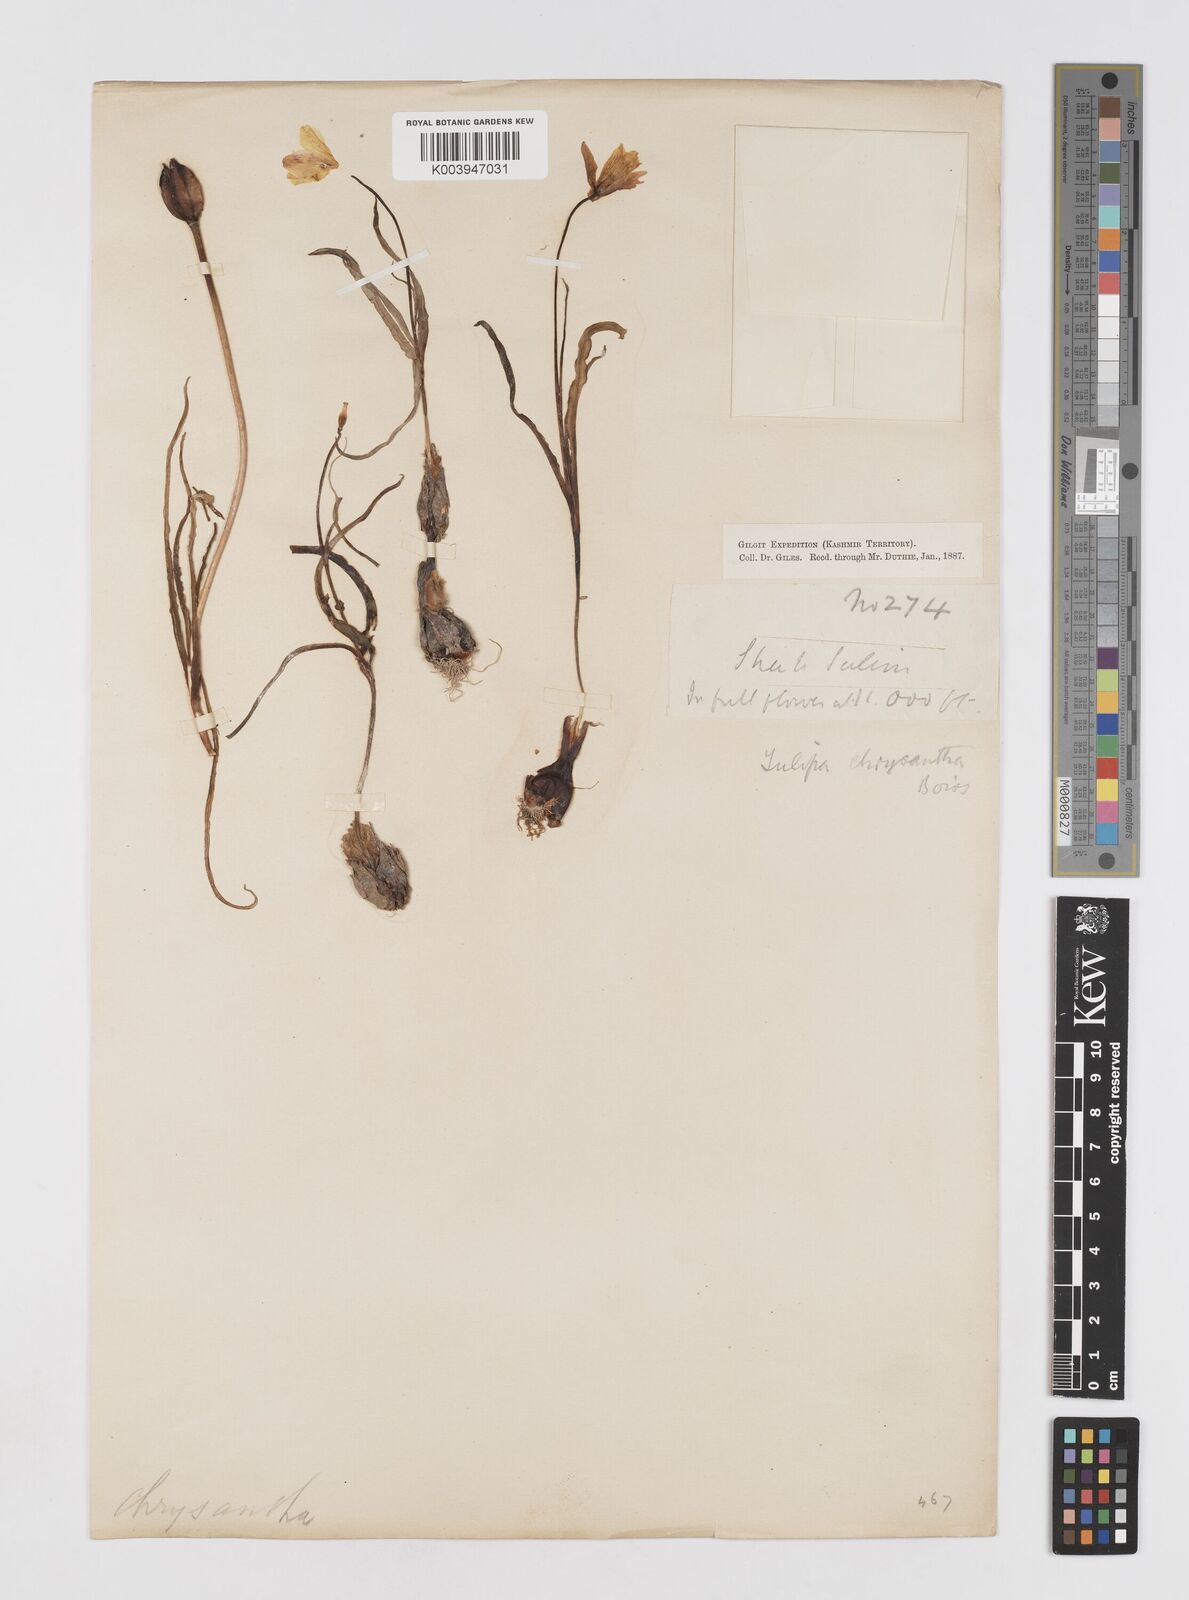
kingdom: Plantae
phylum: Tracheophyta
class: Liliopsida
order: Liliales
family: Liliaceae
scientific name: Liliaceae
